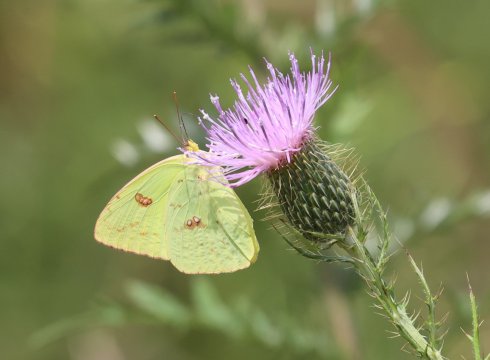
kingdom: Animalia
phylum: Arthropoda
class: Insecta
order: Lepidoptera
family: Pieridae
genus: Phoebis
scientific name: Phoebis sennae
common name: Cloudless Sulphur
